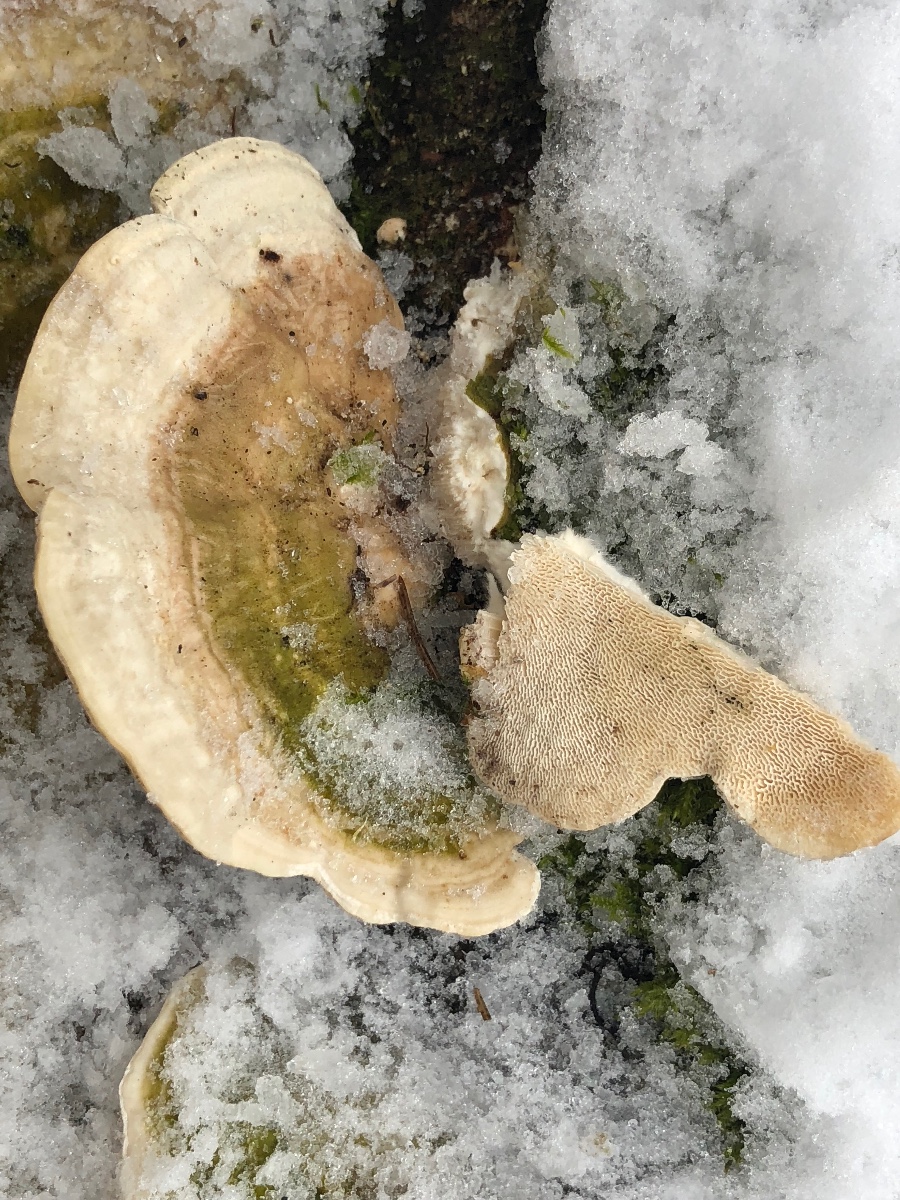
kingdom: Fungi
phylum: Basidiomycota
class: Agaricomycetes
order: Polyporales
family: Polyporaceae
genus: Trametes
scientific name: Trametes gibbosa
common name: puklet læderporesvamp
